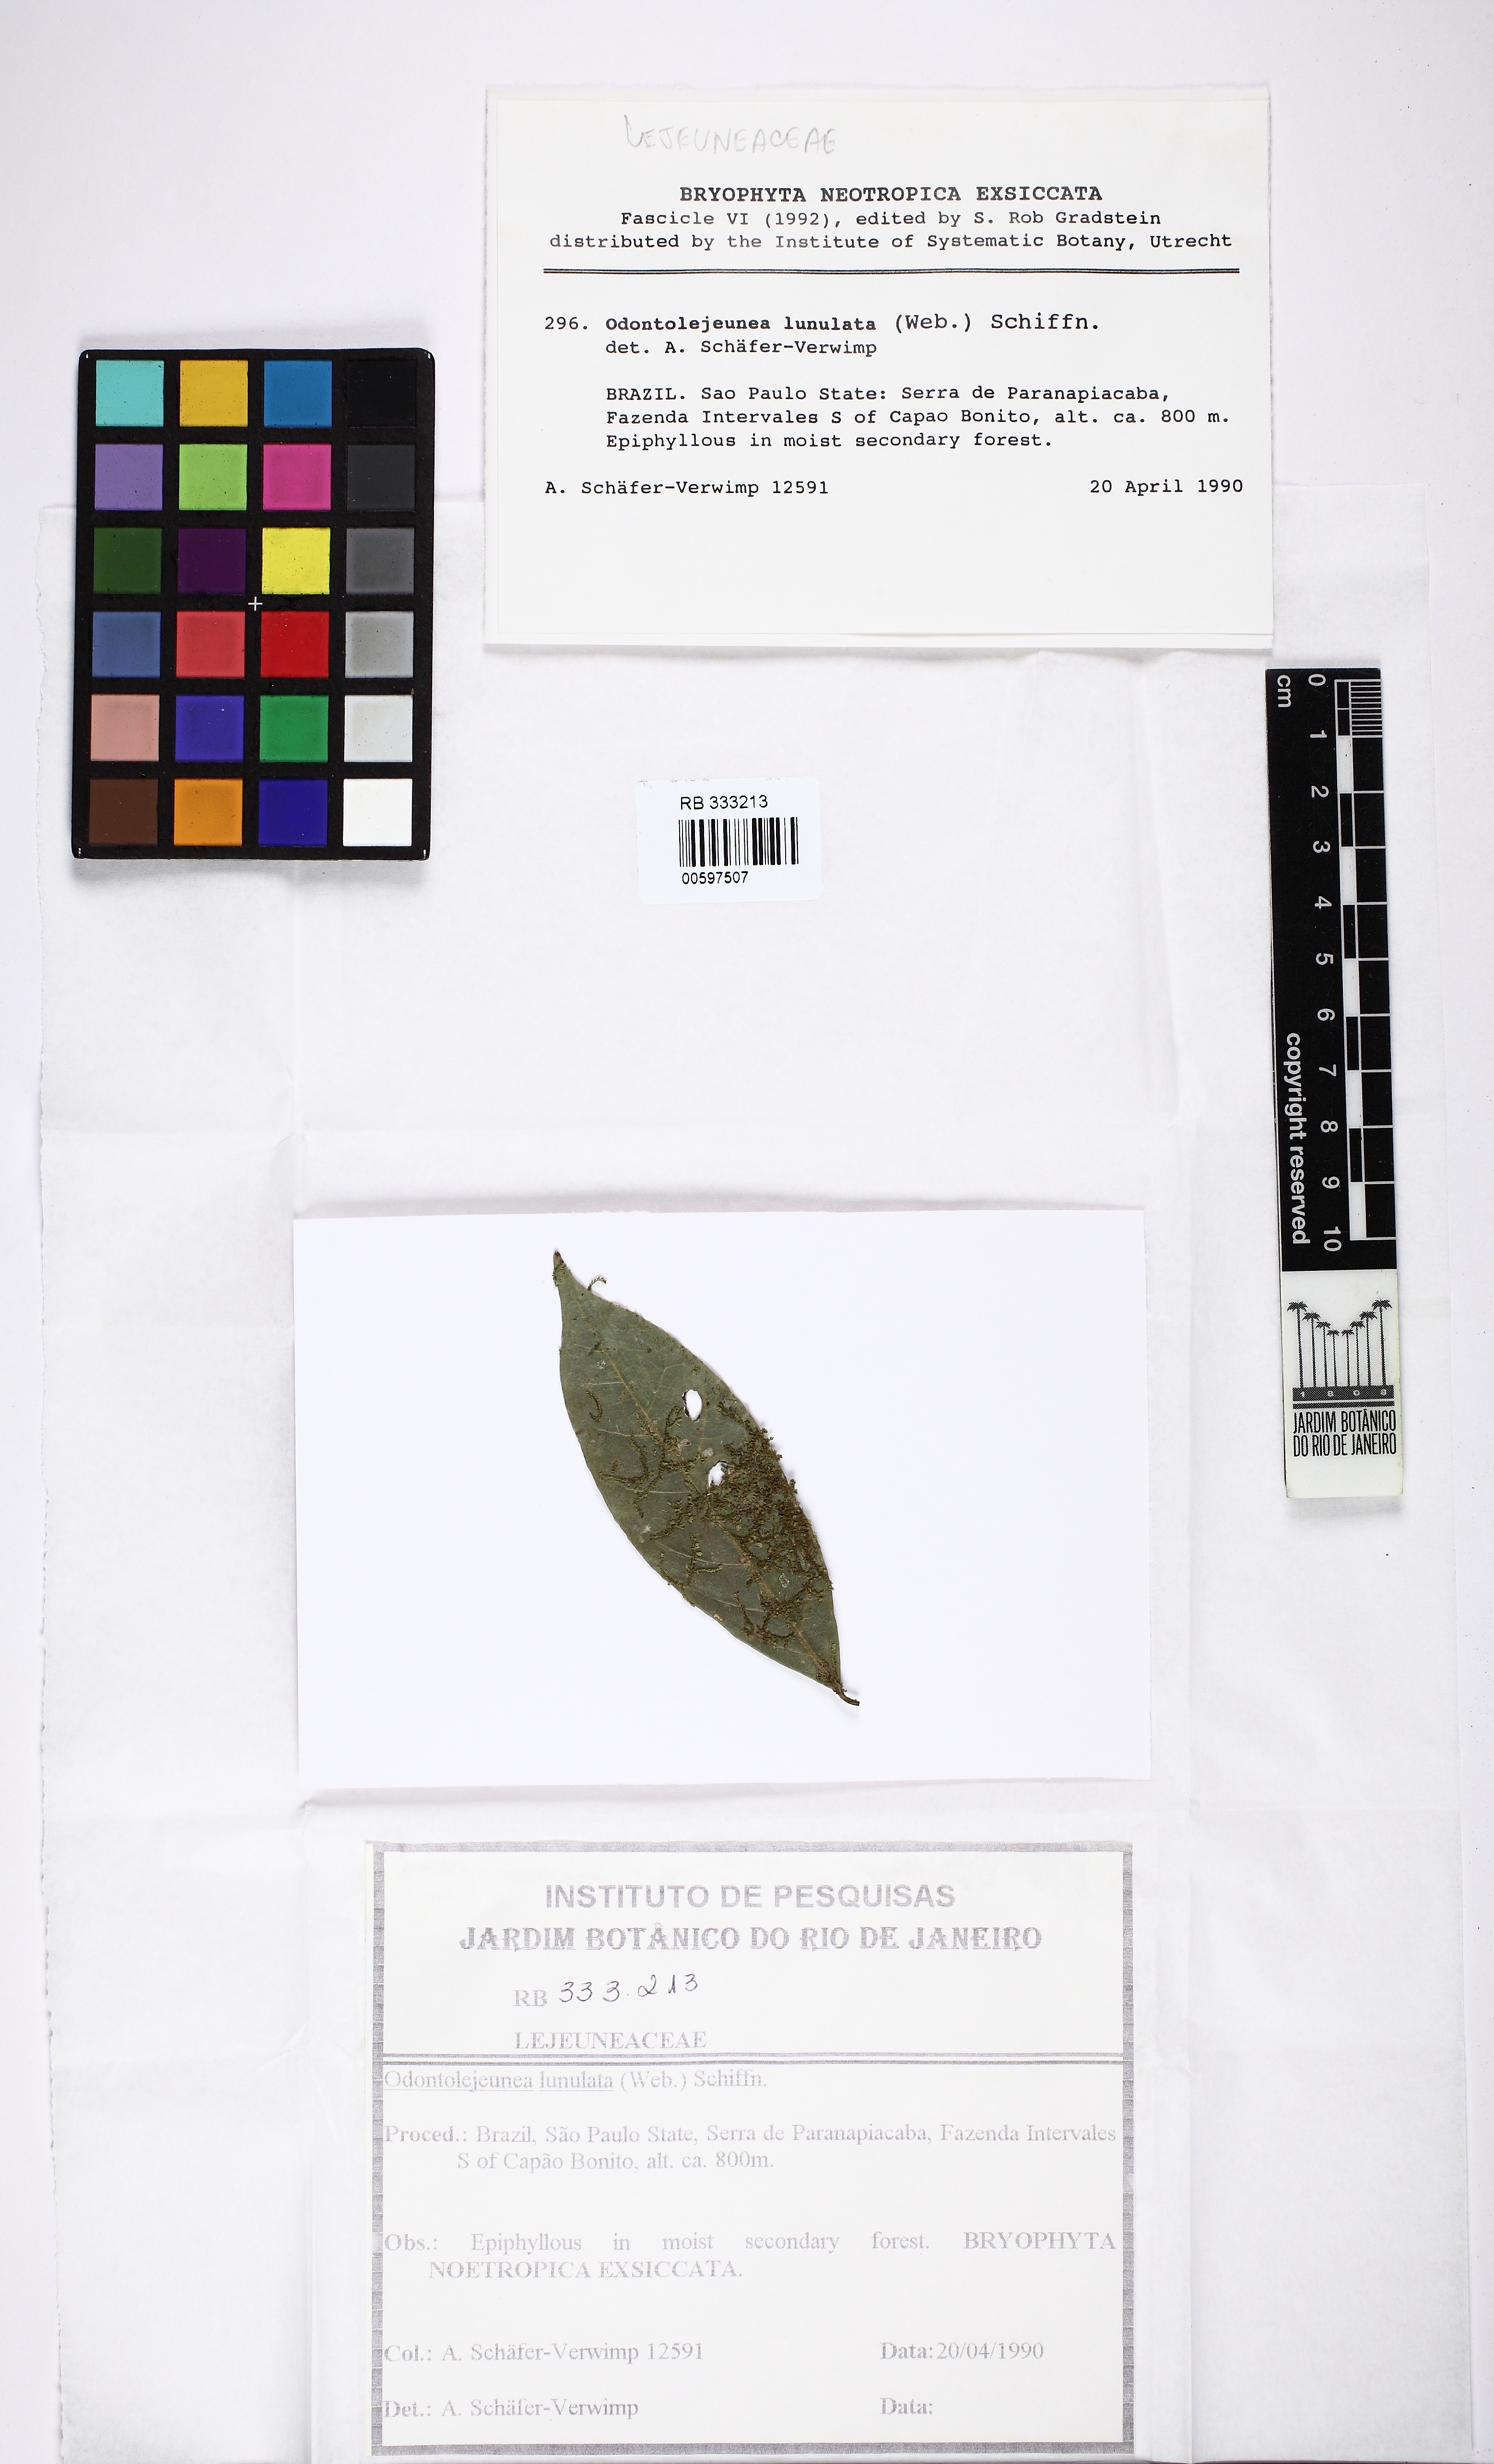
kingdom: Plantae
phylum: Marchantiophyta
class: Jungermanniopsida
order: Porellales
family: Lejeuneaceae
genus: Odontolejeunea
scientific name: Odontolejeunea lunulata
